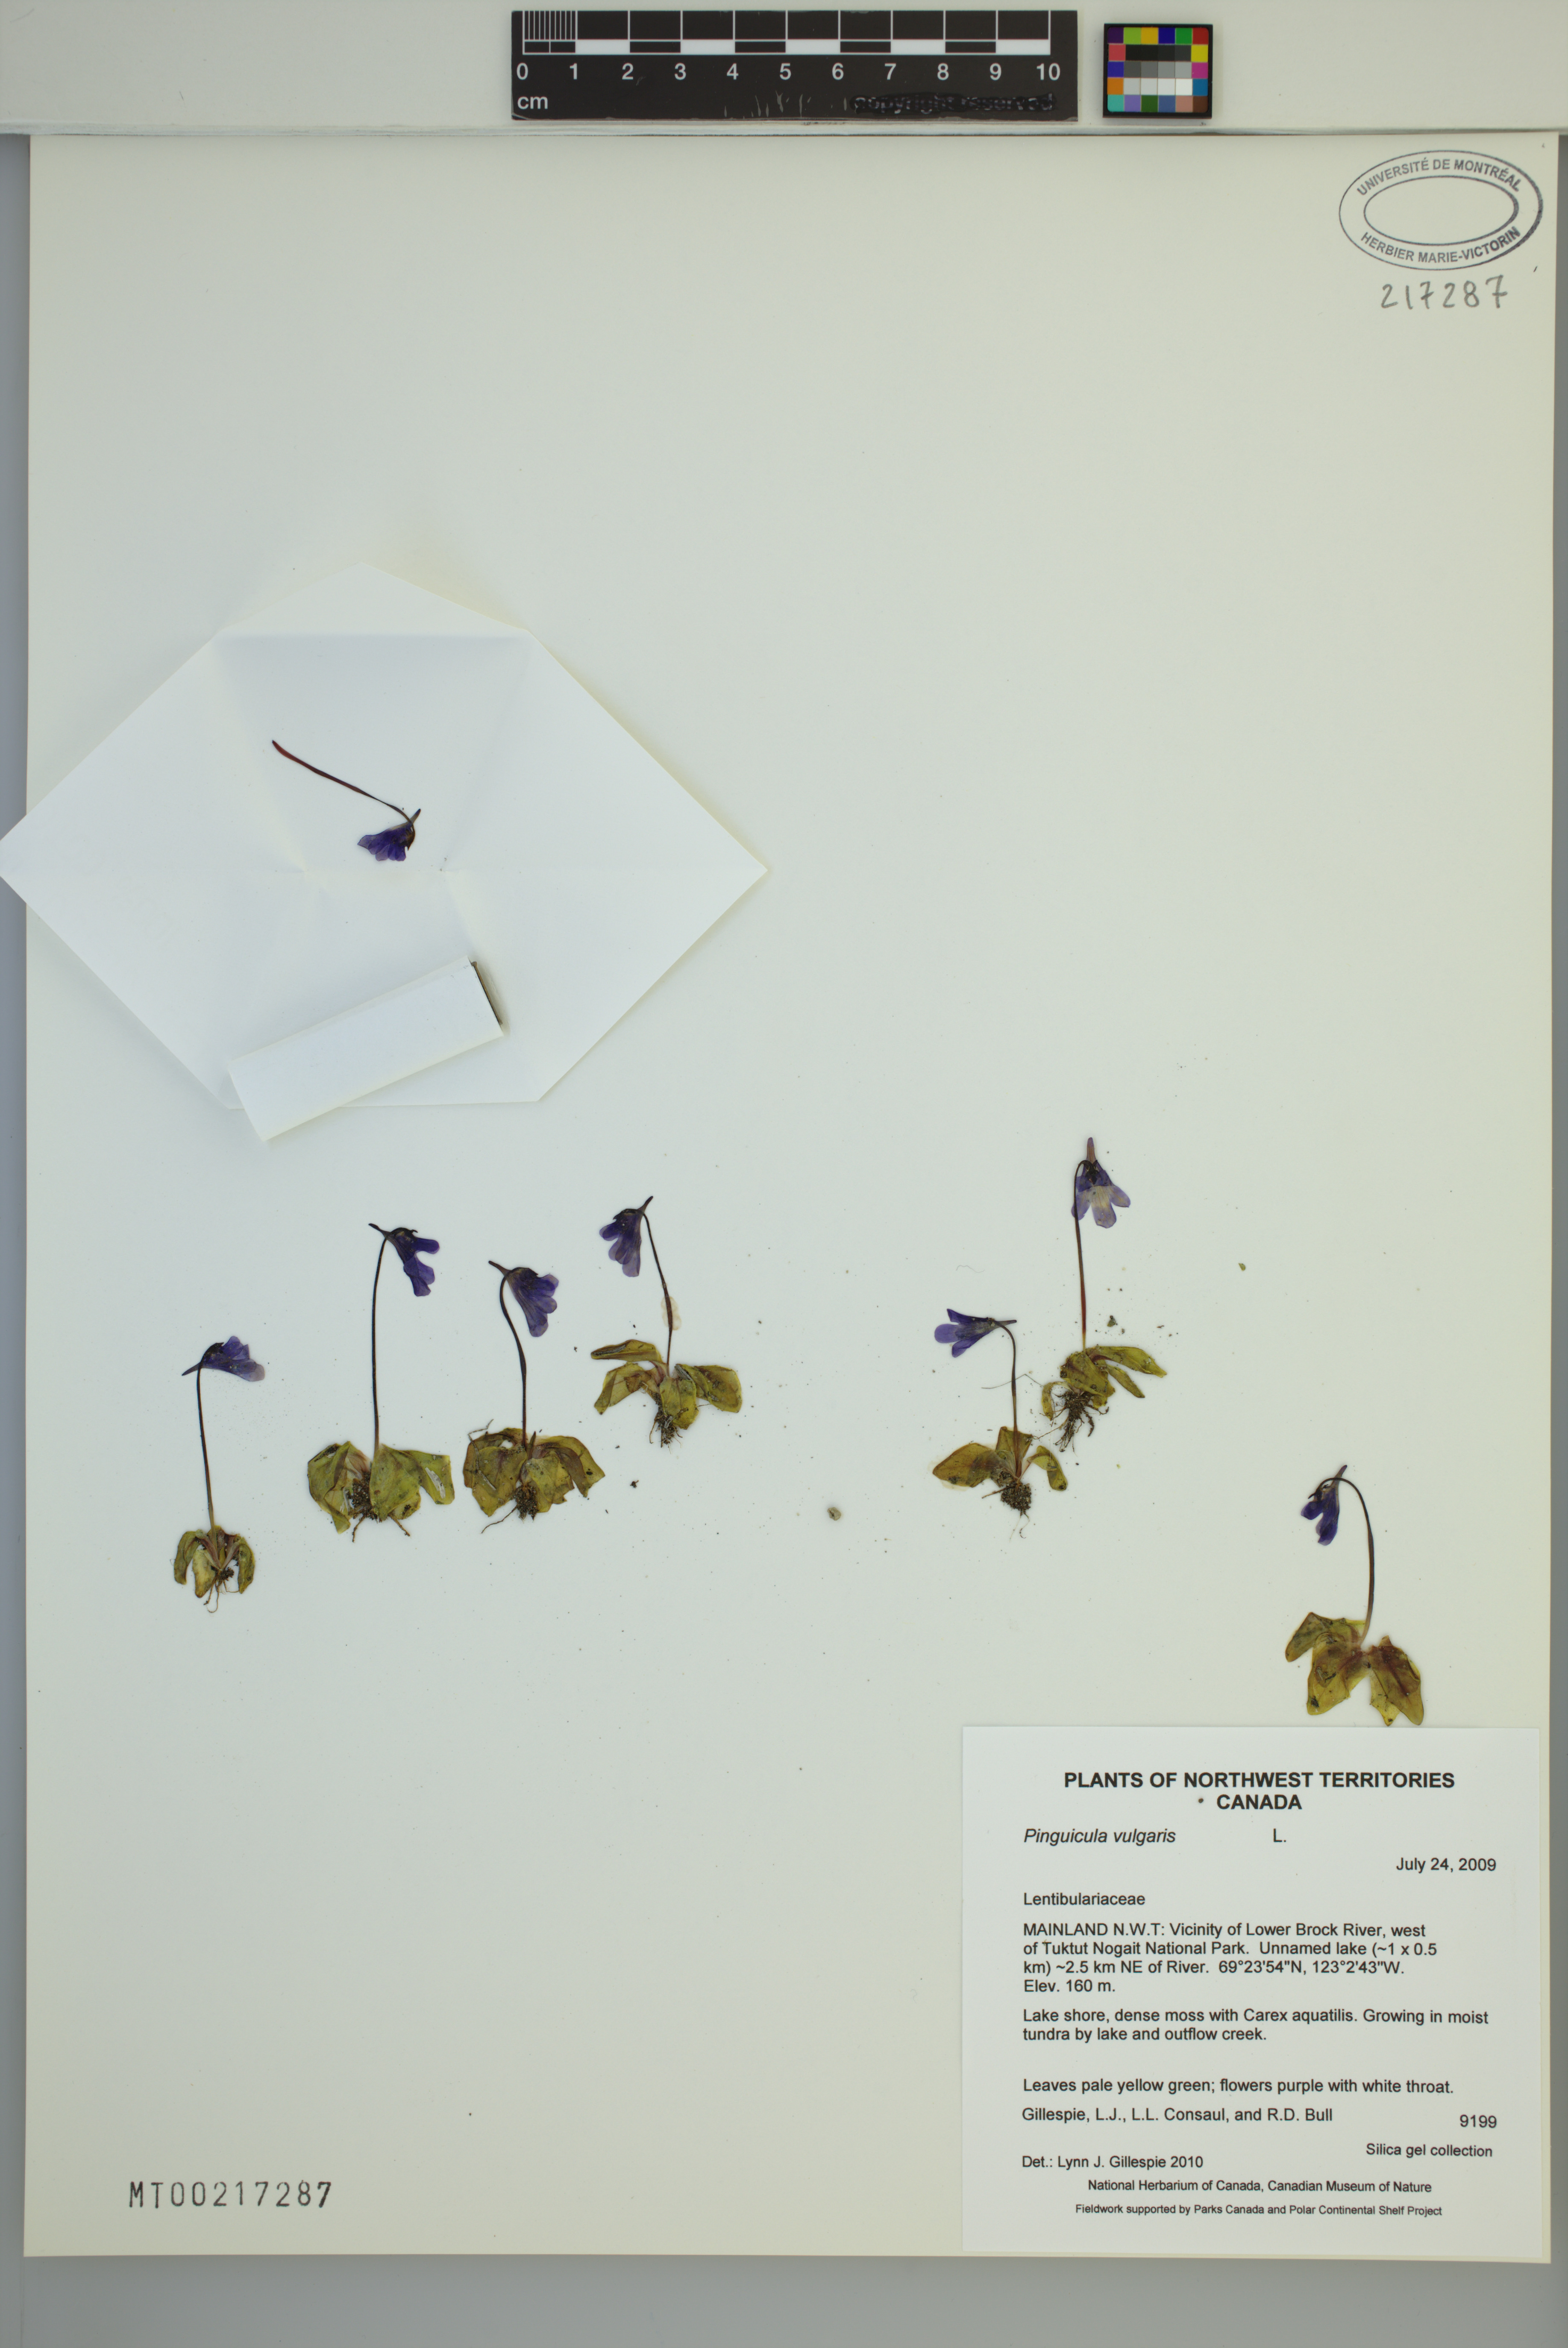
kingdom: Plantae
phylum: Tracheophyta
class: Magnoliopsida
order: Lamiales
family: Lentibulariaceae
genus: Pinguicula
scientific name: Pinguicula vulgaris
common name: Common butterwort
